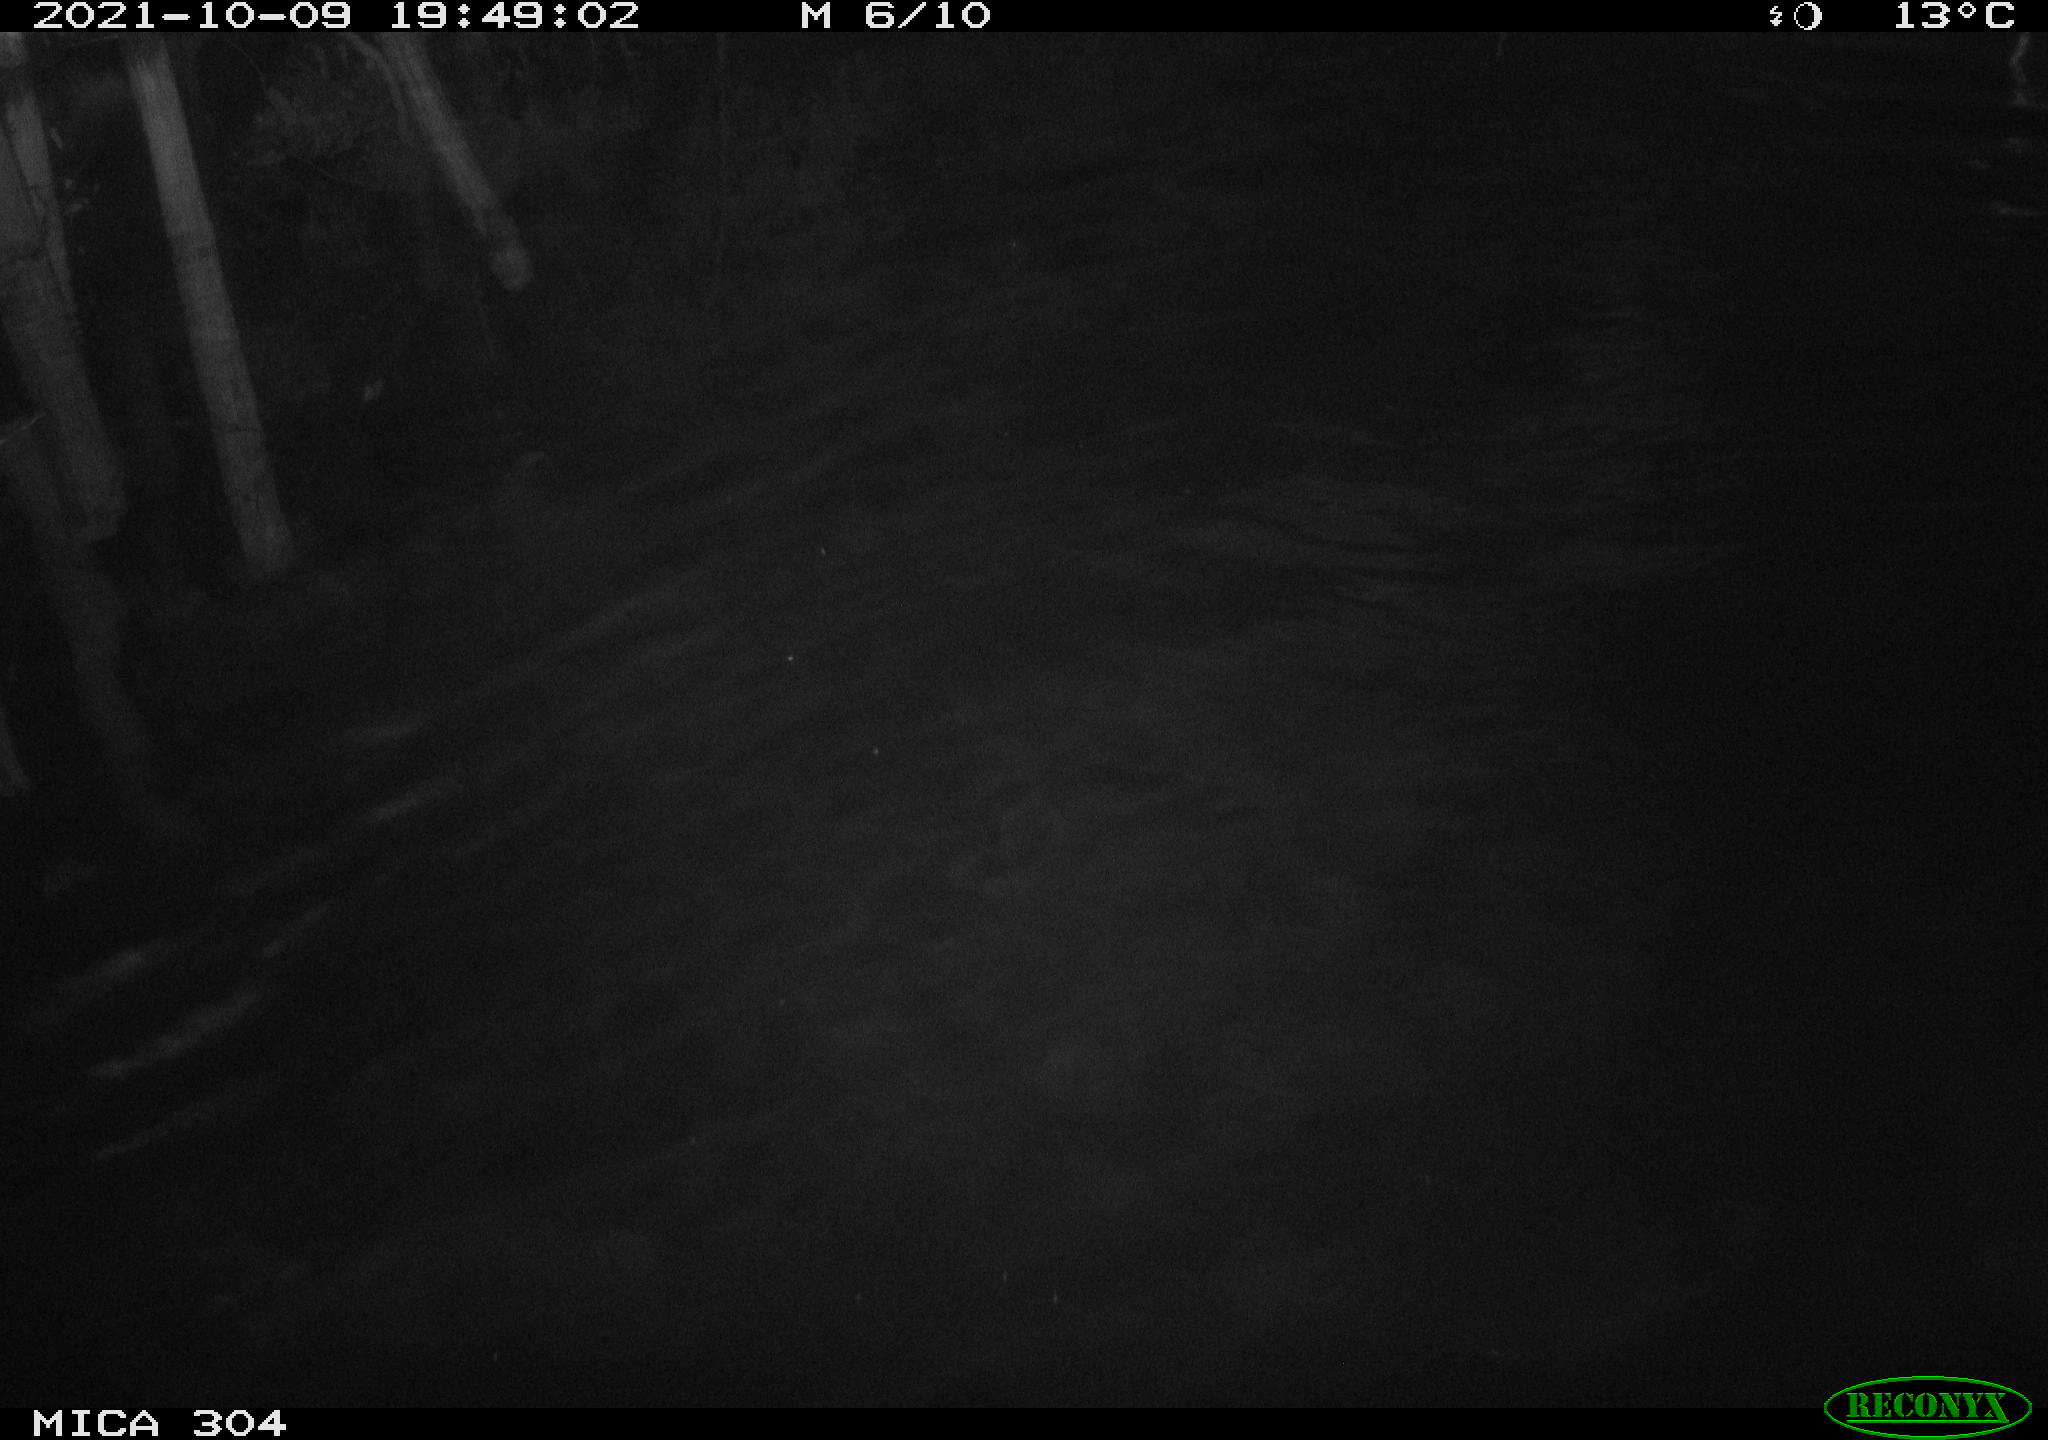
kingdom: Animalia
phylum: Chordata
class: Mammalia
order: Rodentia
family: Cricetidae
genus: Ondatra
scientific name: Ondatra zibethicus
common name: Muskrat
